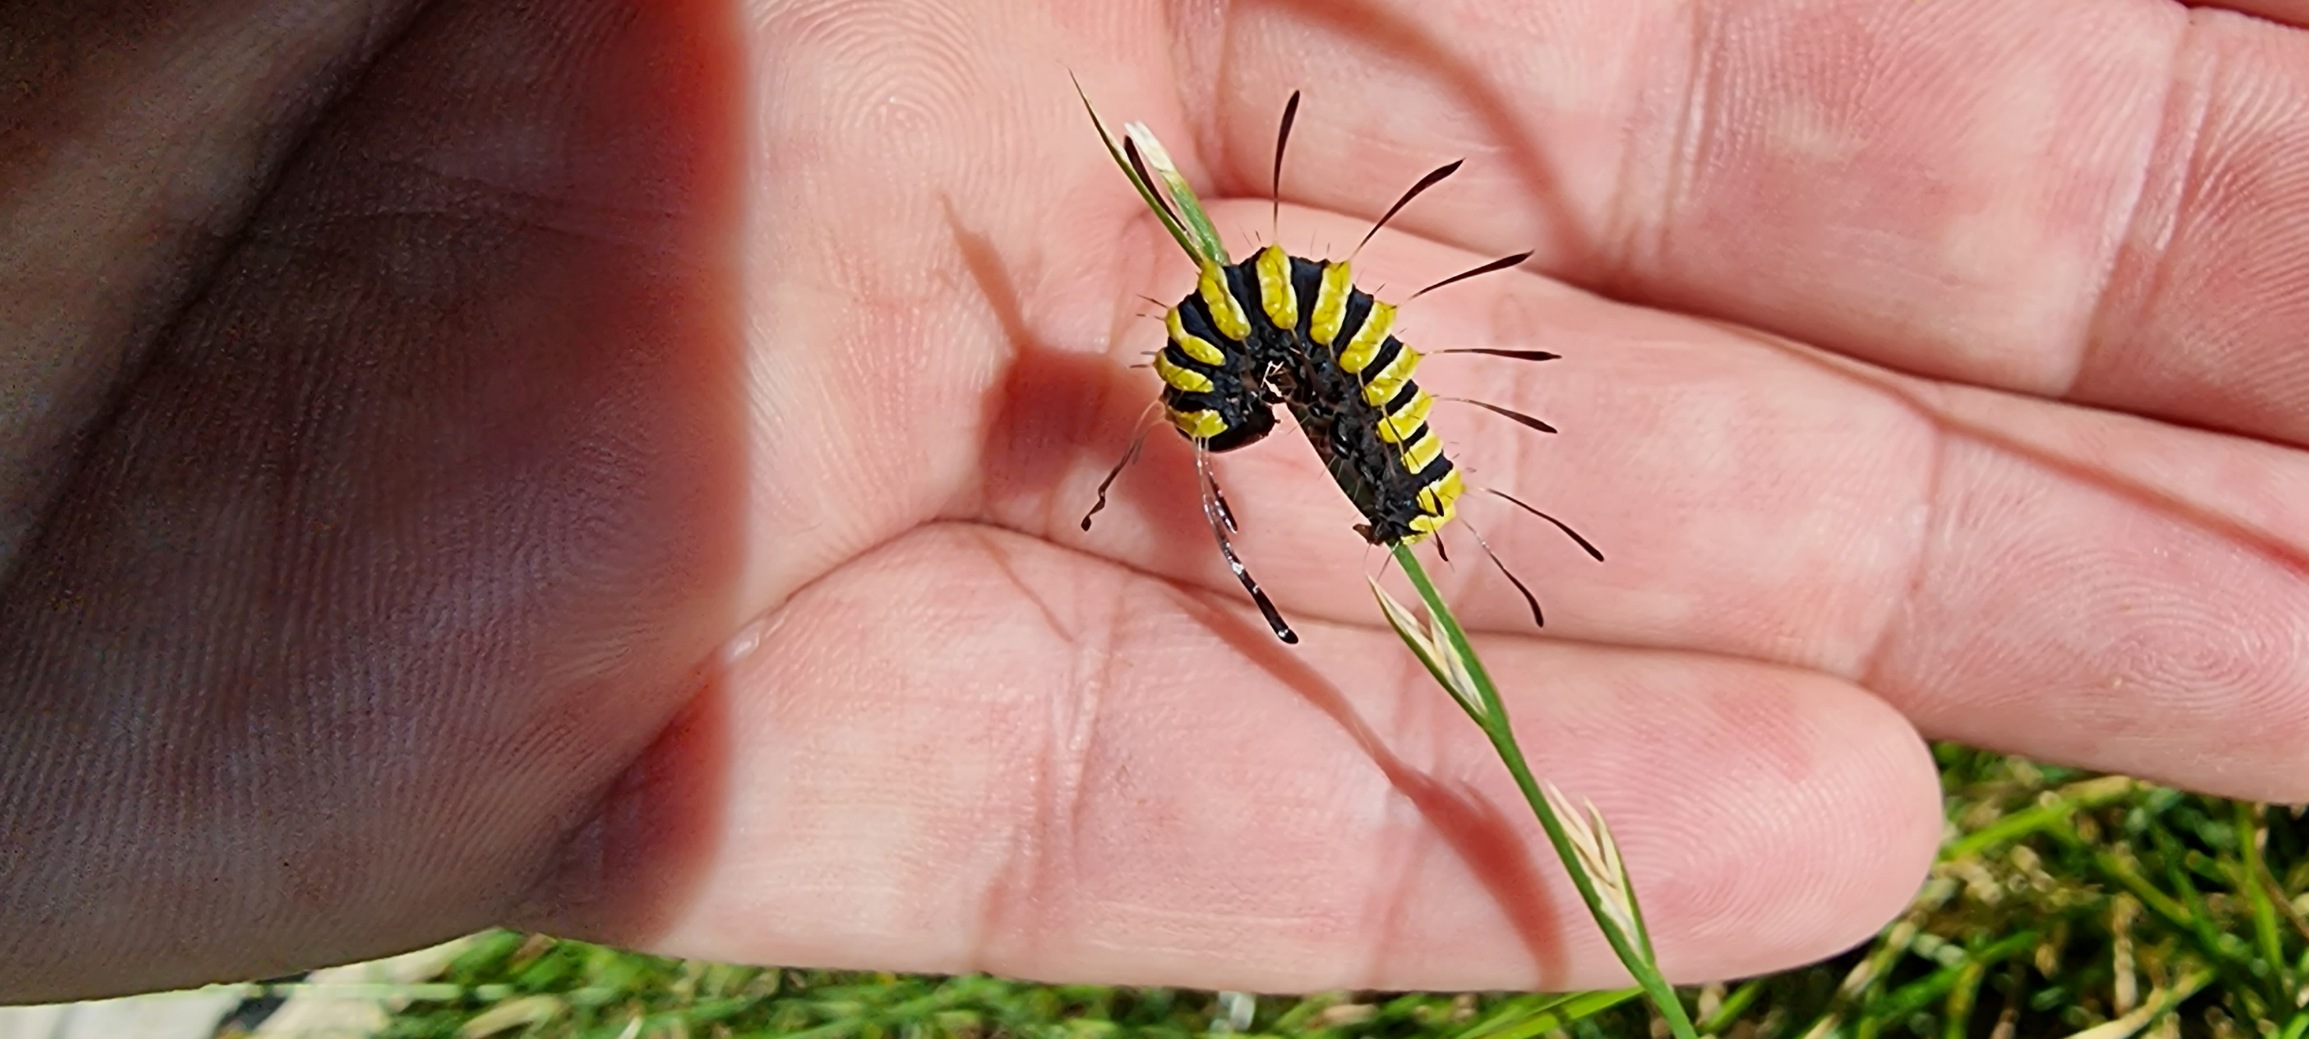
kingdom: Animalia
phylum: Arthropoda
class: Insecta
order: Lepidoptera
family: Noctuidae
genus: Acronicta
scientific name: Acronicta alni
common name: Kølleugle
